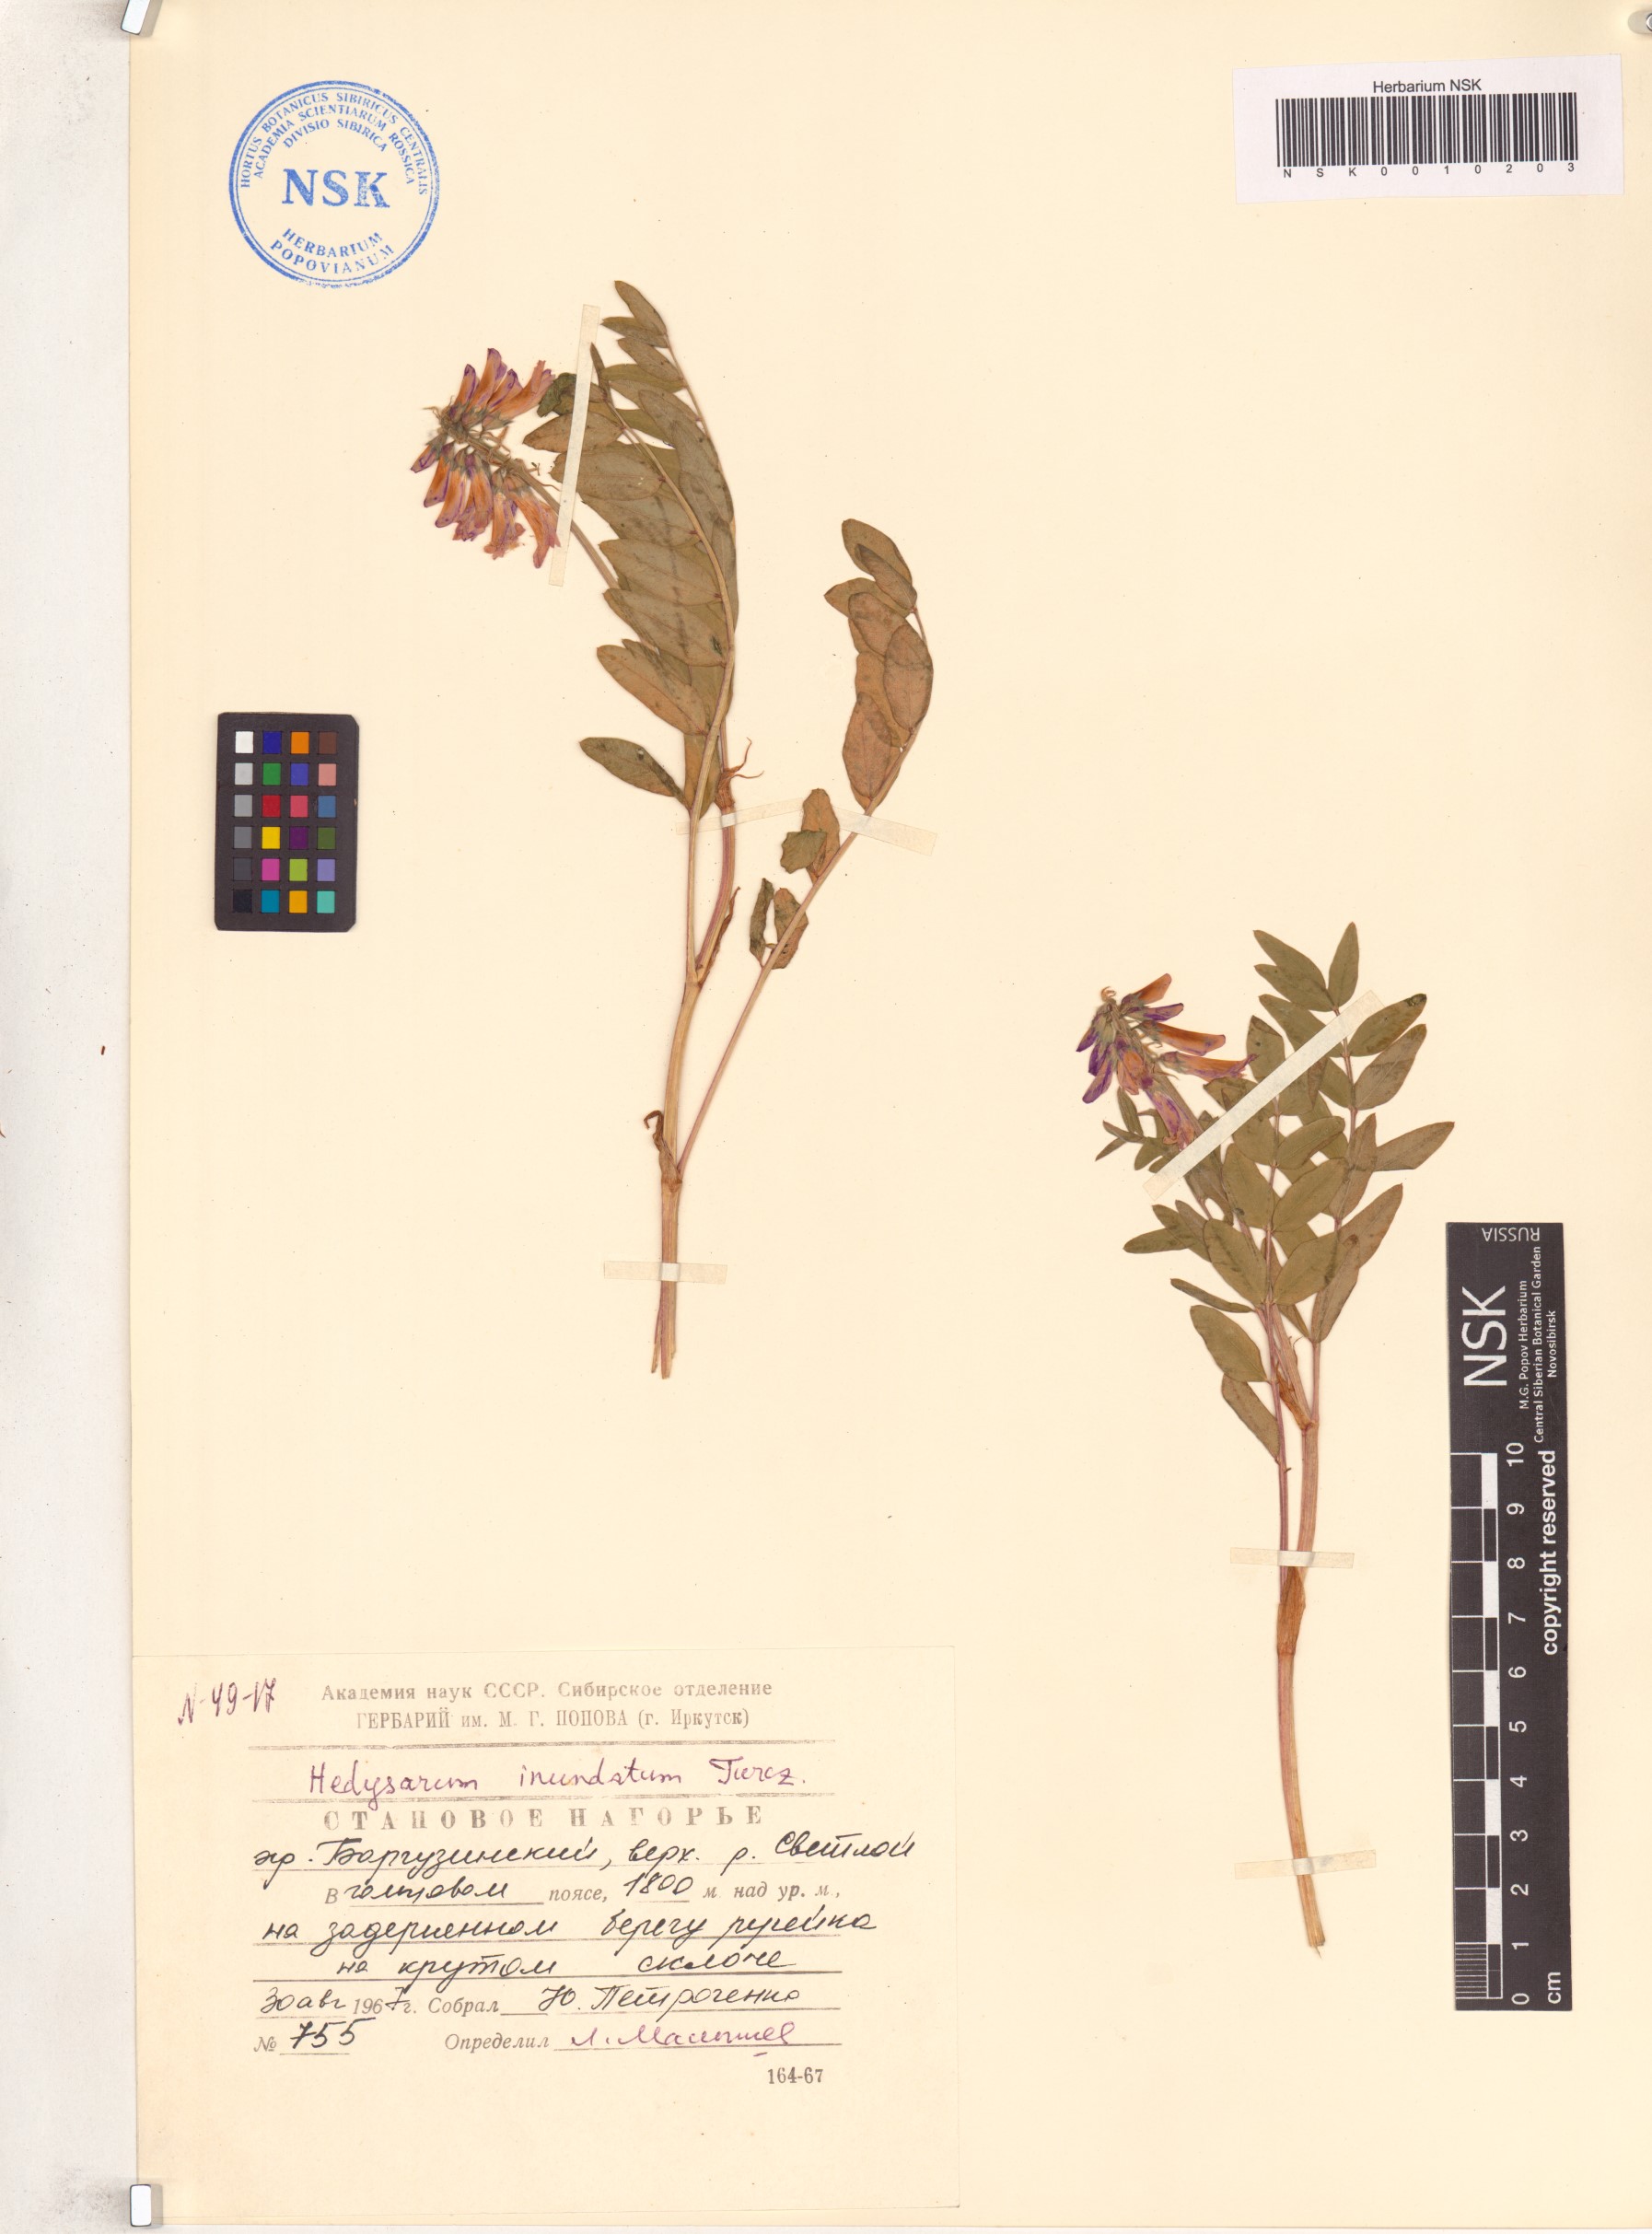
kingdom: Plantae
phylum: Tracheophyta
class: Magnoliopsida
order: Fabales
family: Fabaceae
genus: Hedysarum
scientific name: Hedysarum inundatum
